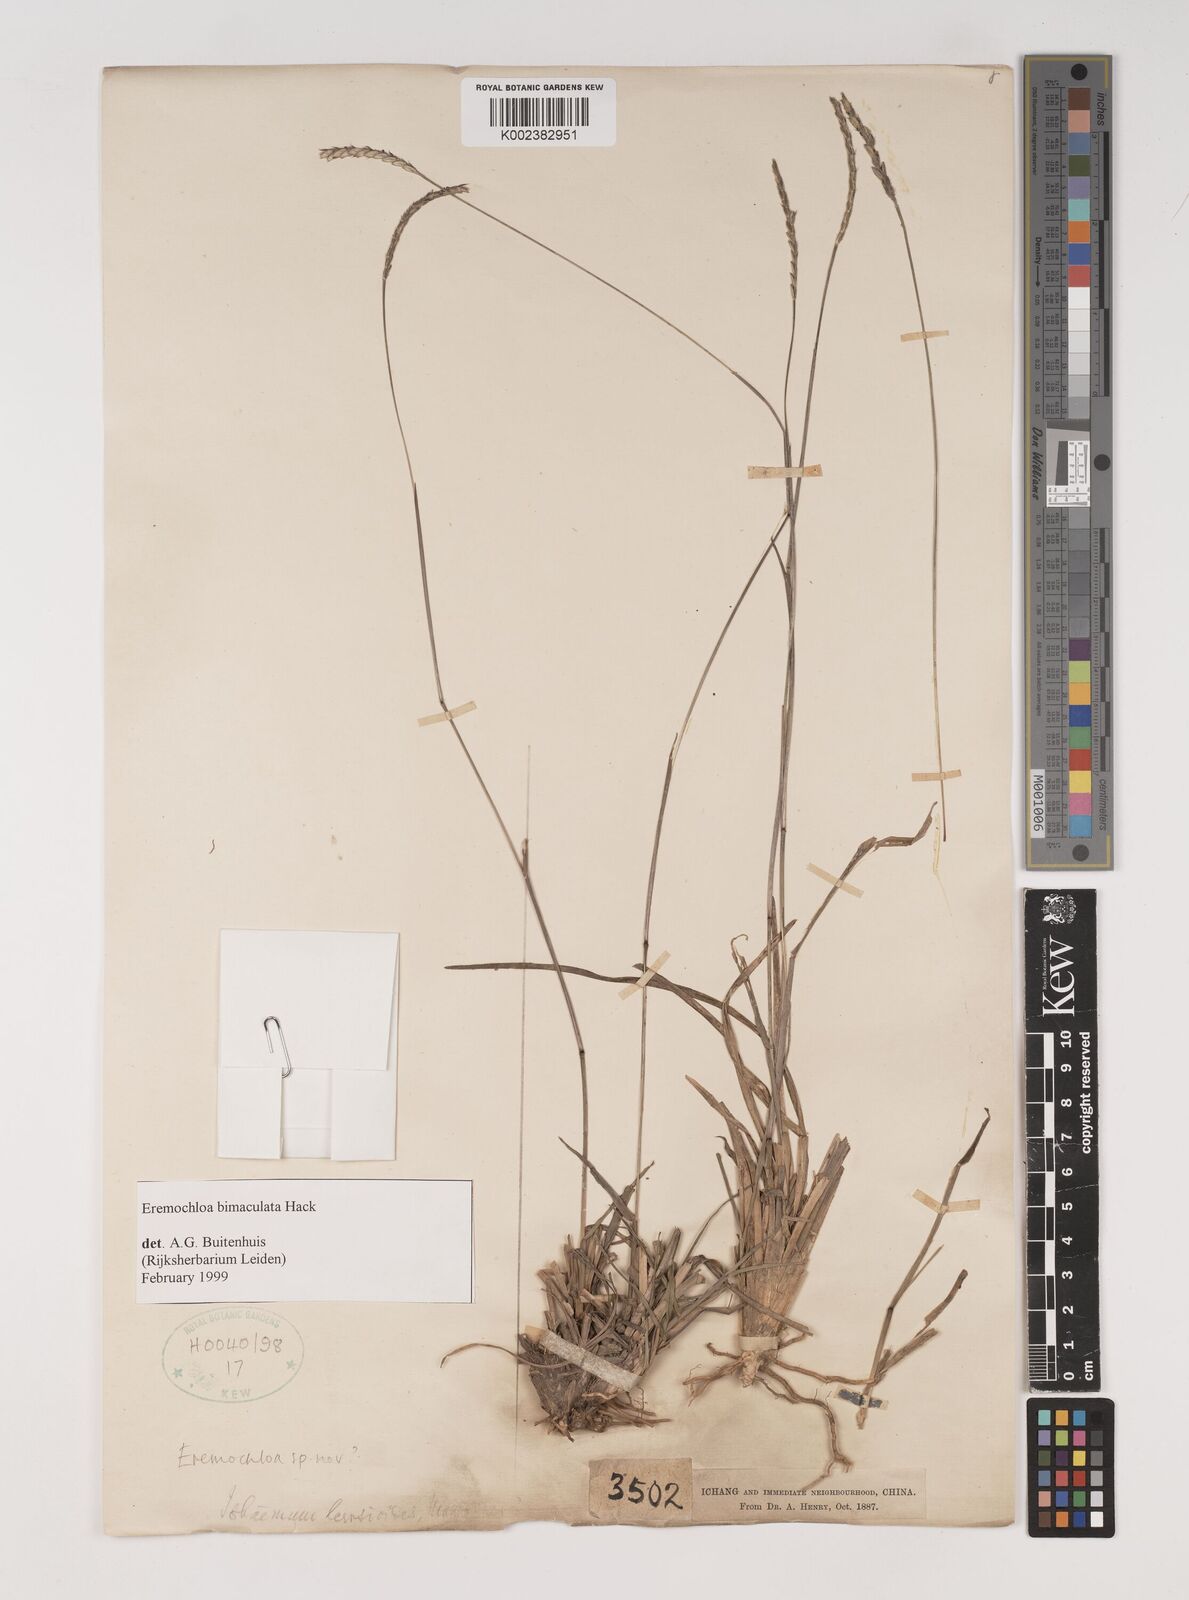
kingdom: Plantae
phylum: Tracheophyta
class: Liliopsida
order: Poales
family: Poaceae
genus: Eremochloa
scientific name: Eremochloa bimaculata
